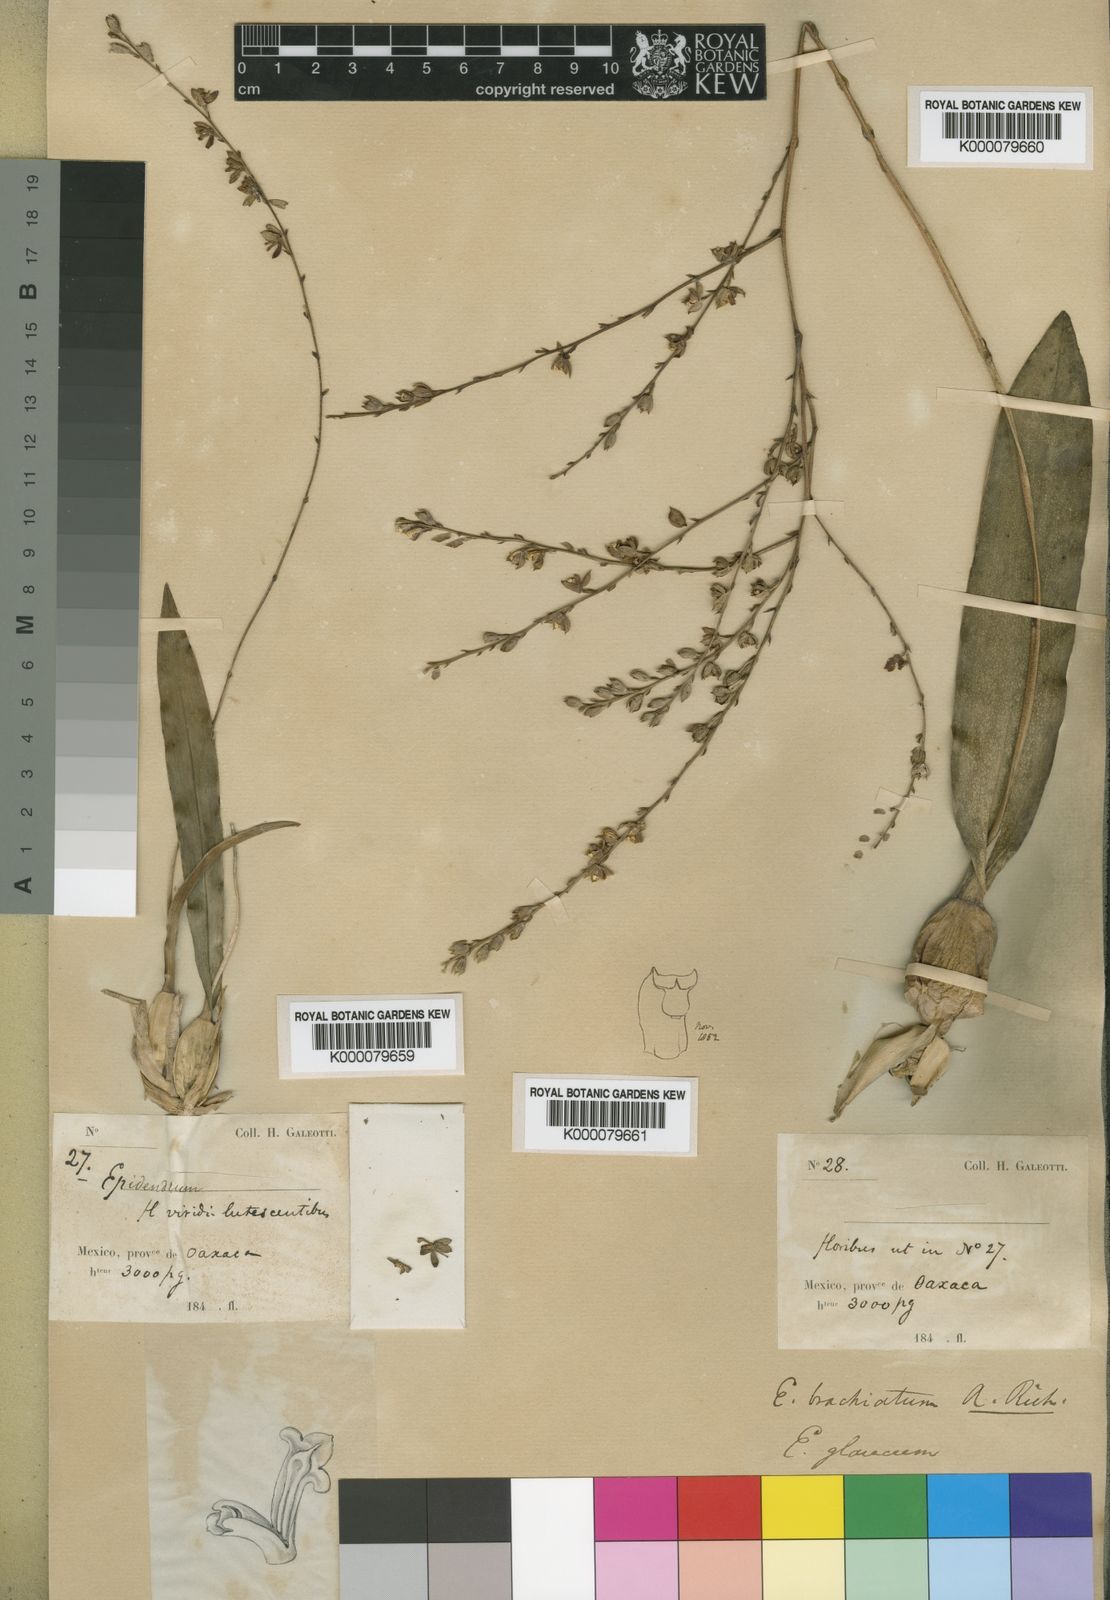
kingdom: Plantae
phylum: Tracheophyta
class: Liliopsida
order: Asparagales
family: Orchidaceae
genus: Prosthechea
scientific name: Prosthechea glauca
